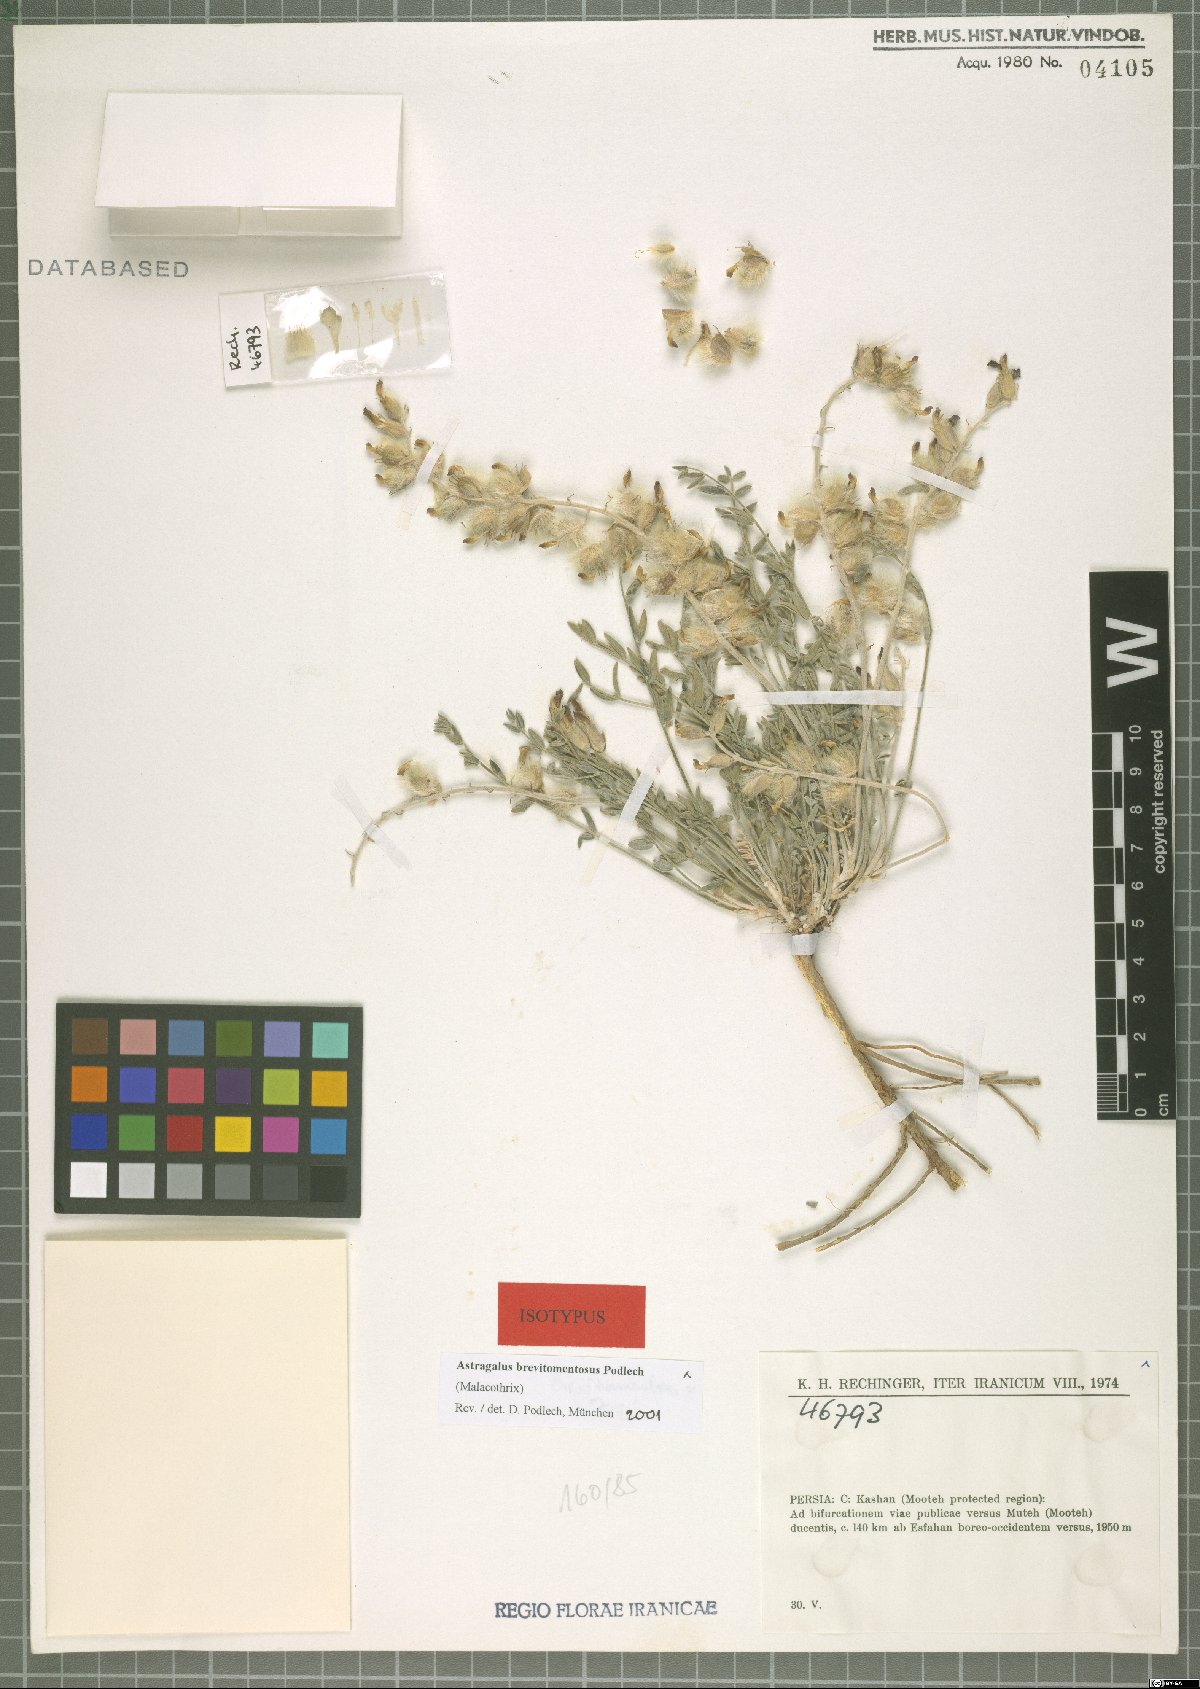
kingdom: Plantae
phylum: Tracheophyta
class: Magnoliopsida
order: Fabales
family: Fabaceae
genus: Astragalus
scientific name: Astragalus brevitomentosus
